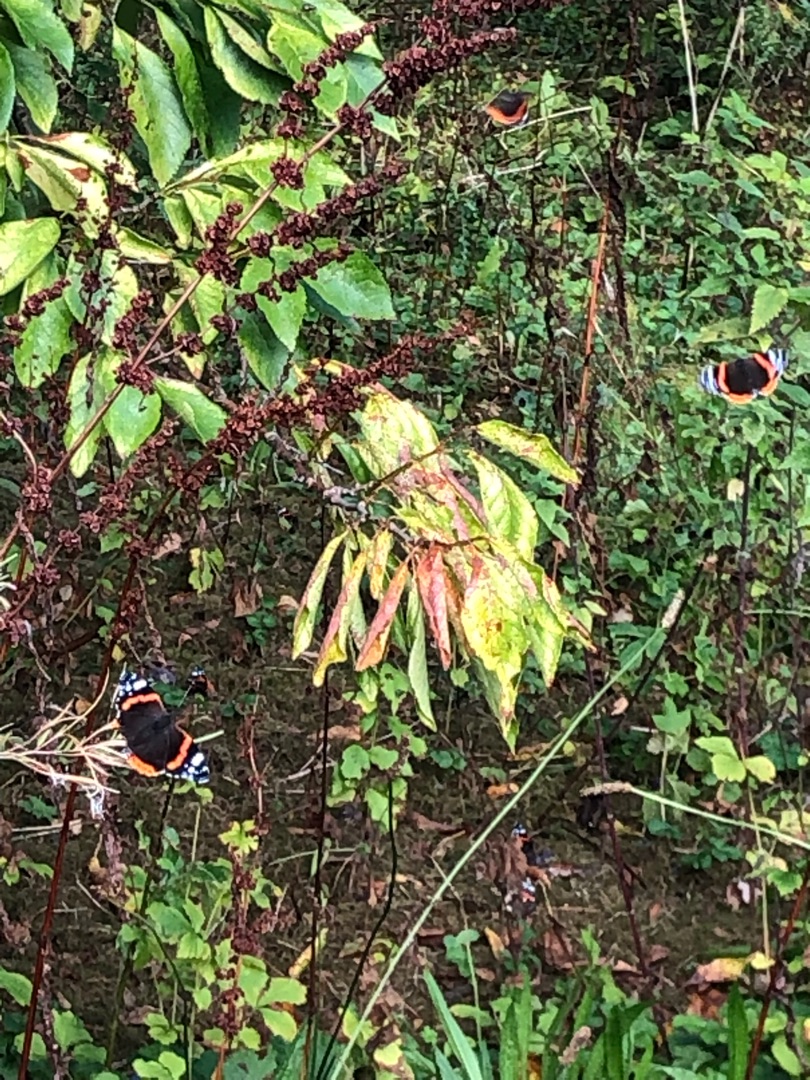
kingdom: Animalia
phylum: Arthropoda
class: Insecta
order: Lepidoptera
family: Nymphalidae
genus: Vanessa
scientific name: Vanessa atalanta
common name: Admiral
